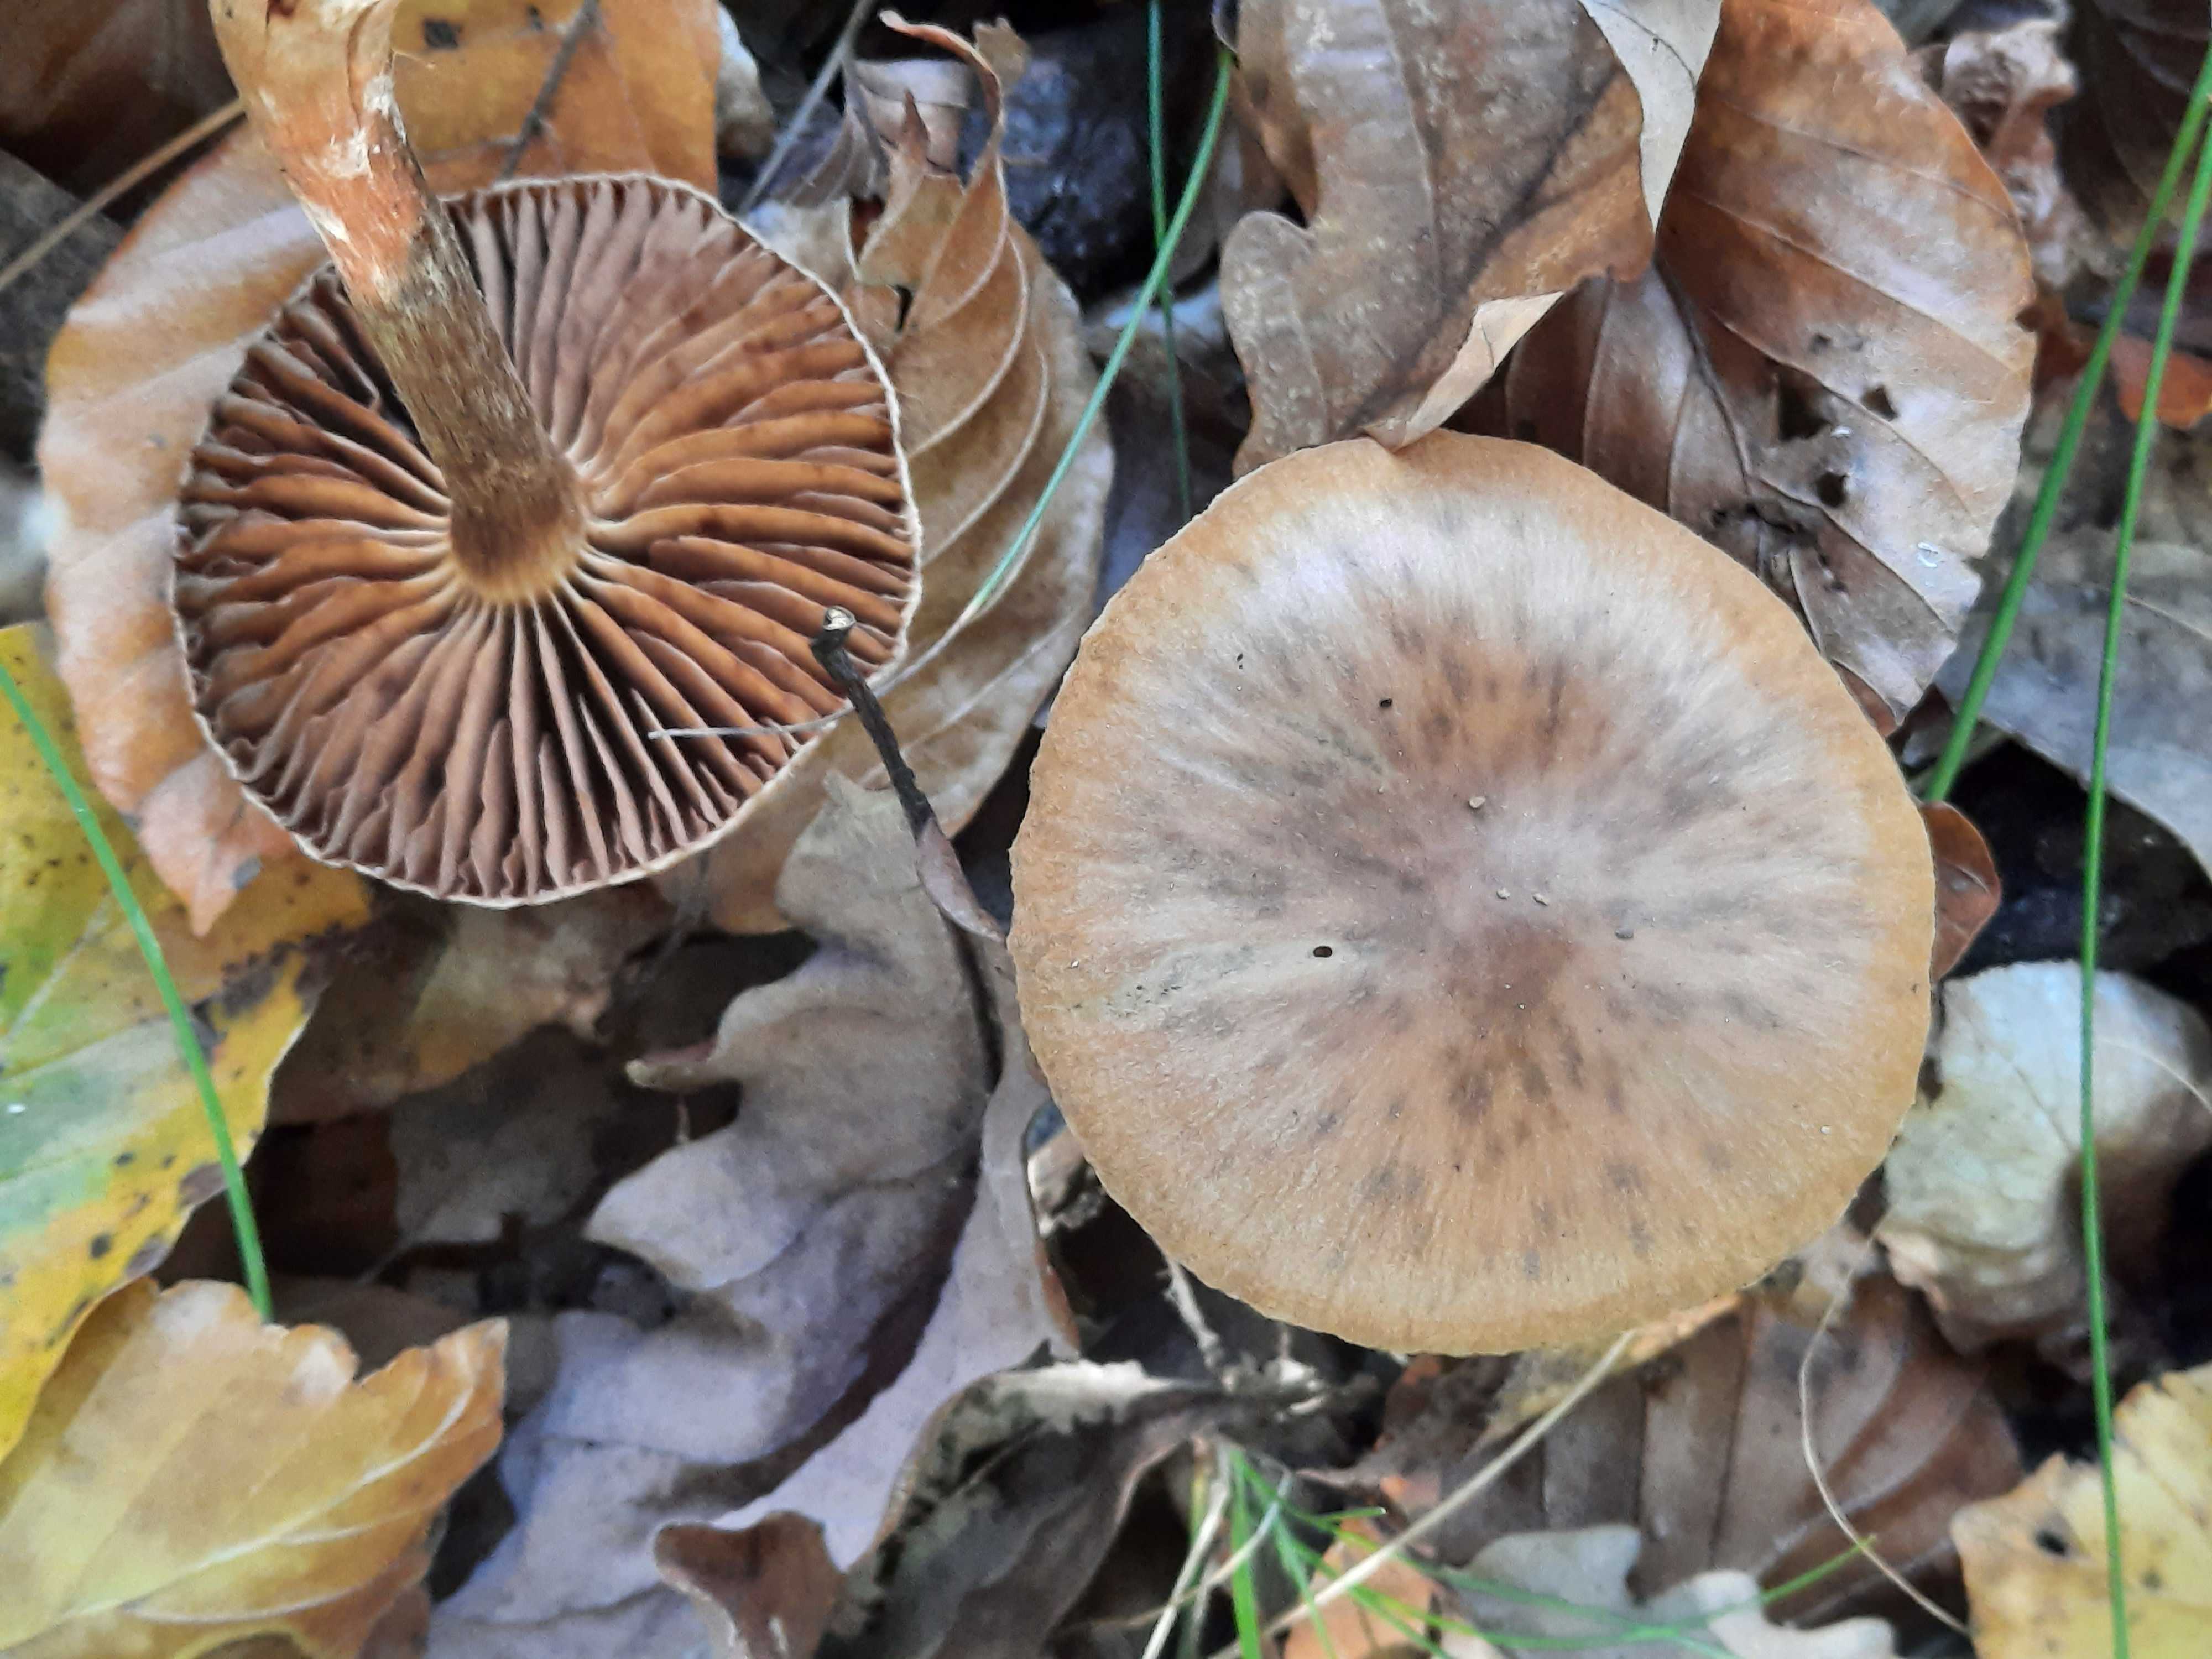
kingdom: Fungi
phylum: Basidiomycota
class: Agaricomycetes
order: Agaricales
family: Cortinariaceae
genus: Cortinarius
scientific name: Cortinarius hinnuleus
